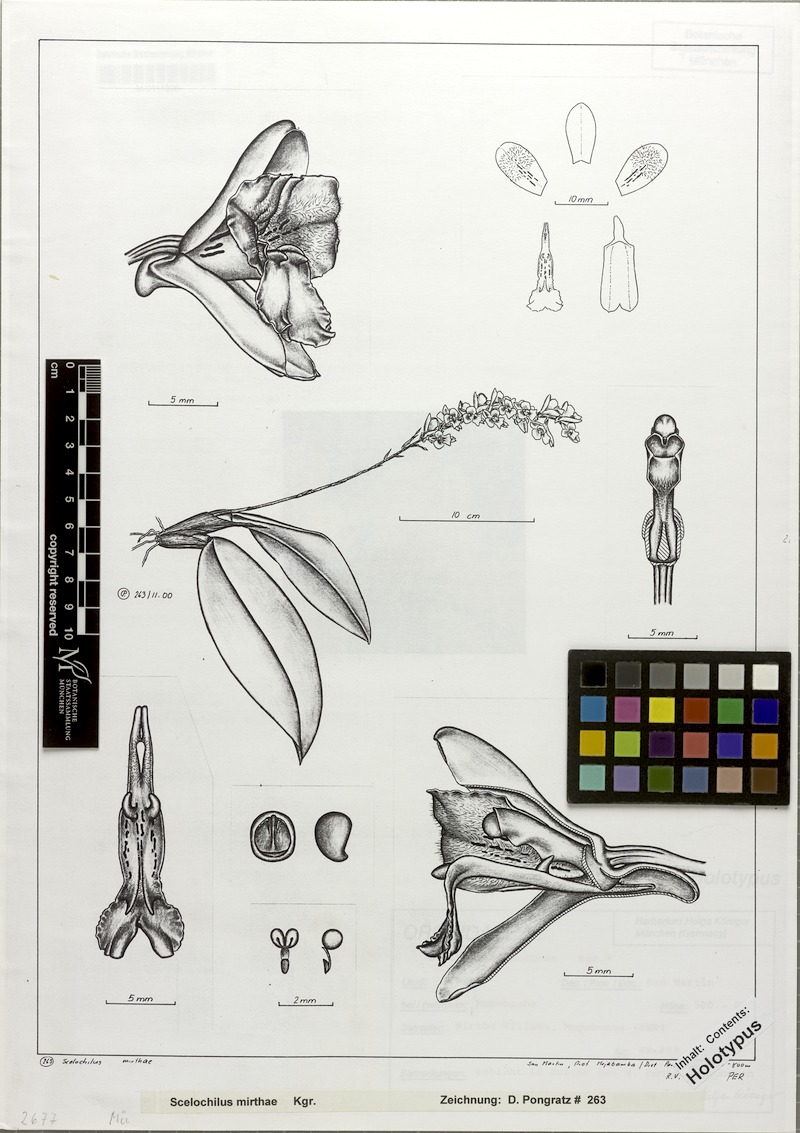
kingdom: Plantae
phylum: Tracheophyta
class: Liliopsida
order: Asparagales
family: Orchidaceae
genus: Comparettia
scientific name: Comparettia mirthae
